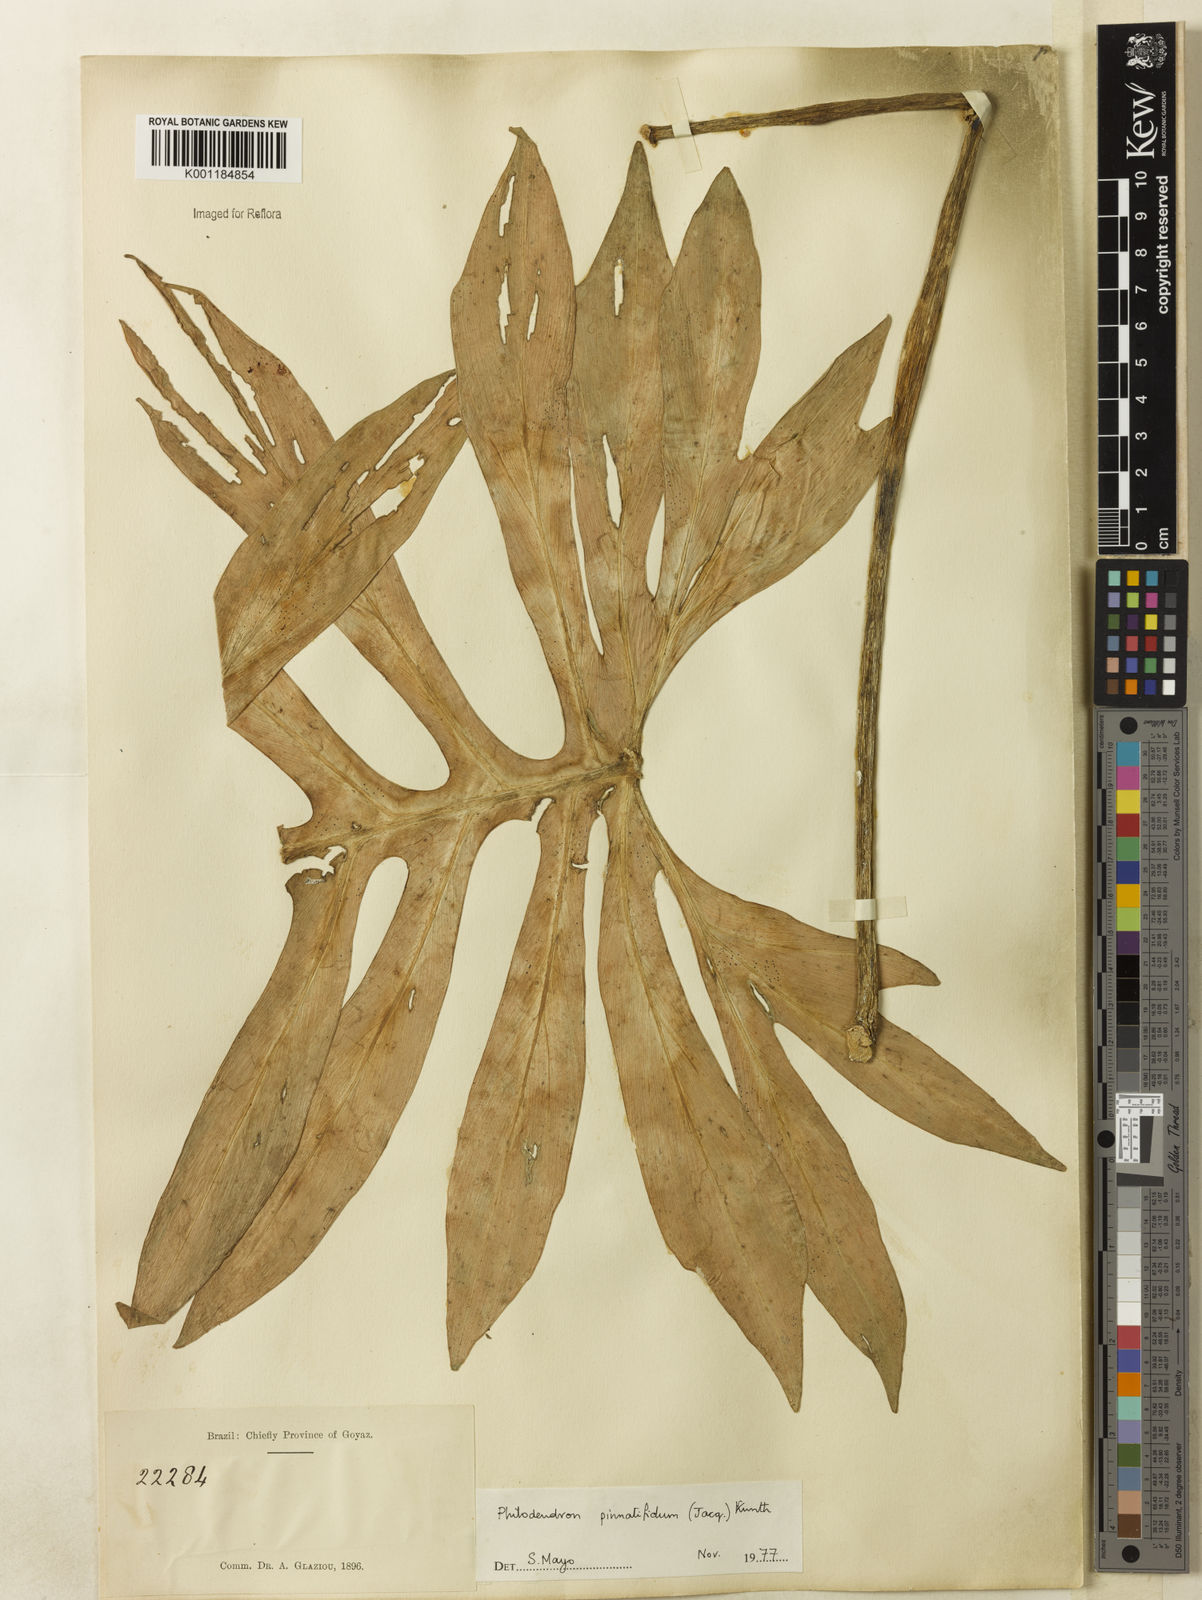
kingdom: Plantae
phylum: Tracheophyta
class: Liliopsida
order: Alismatales
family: Araceae
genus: Philodendron
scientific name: Philodendron
